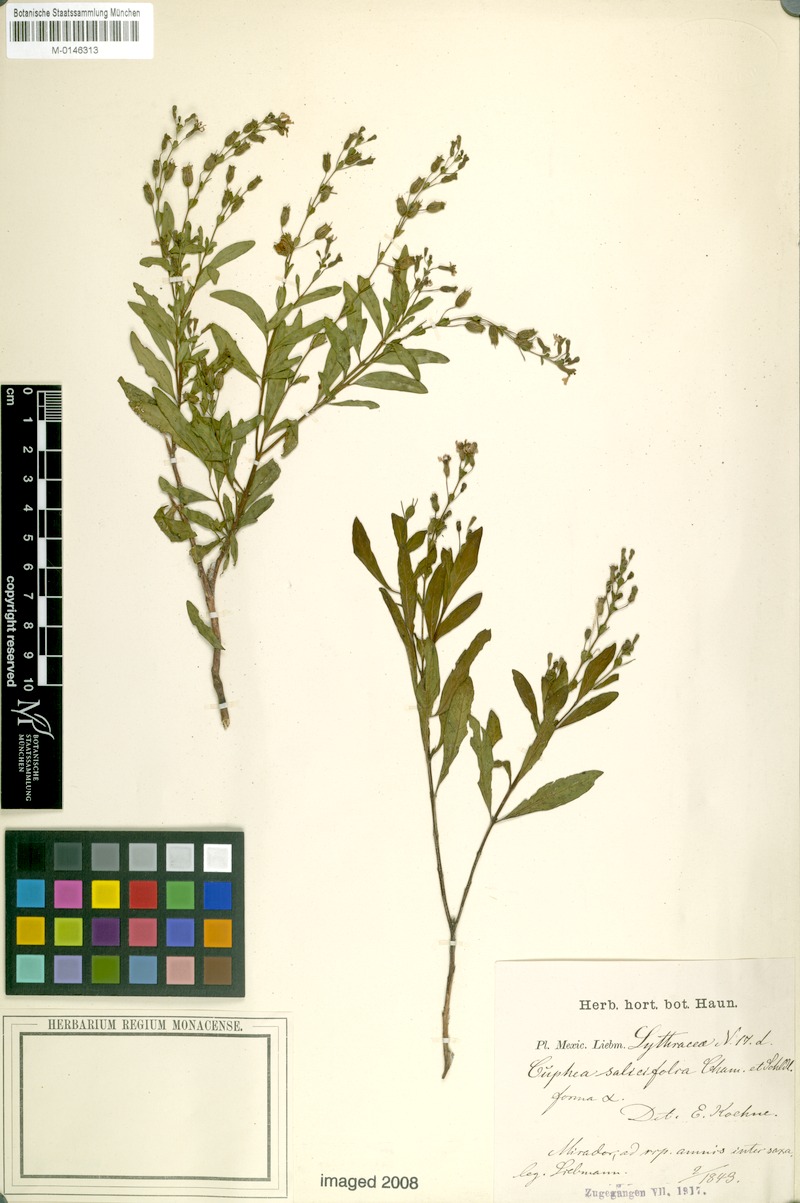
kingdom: Plantae
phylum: Tracheophyta
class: Magnoliopsida
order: Myrtales
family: Lythraceae
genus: Cuphea
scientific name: Cuphea salicifolia
